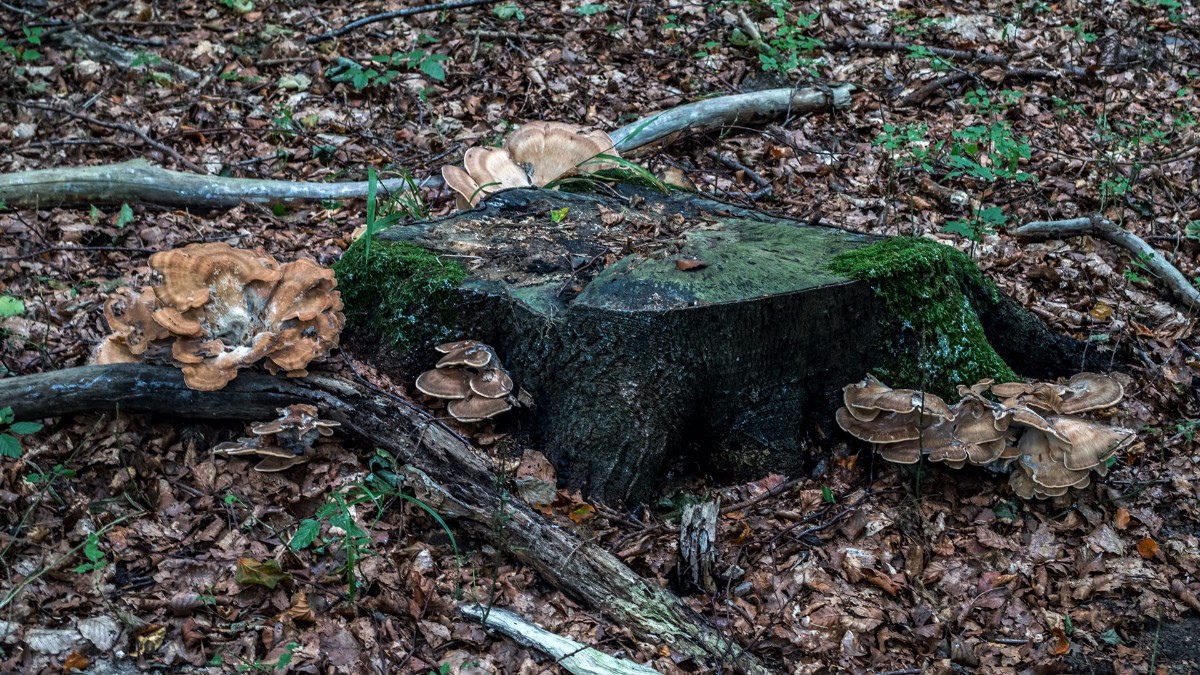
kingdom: Fungi
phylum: Basidiomycota
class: Agaricomycetes
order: Polyporales
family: Meripilaceae
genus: Meripilus
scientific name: Meripilus giganteus
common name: kæmpeporesvamp
